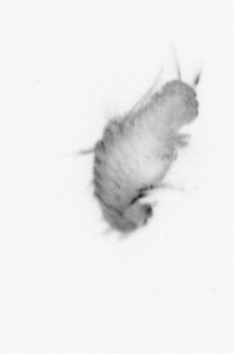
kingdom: Animalia
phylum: Annelida
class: Polychaeta
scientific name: Polychaeta
